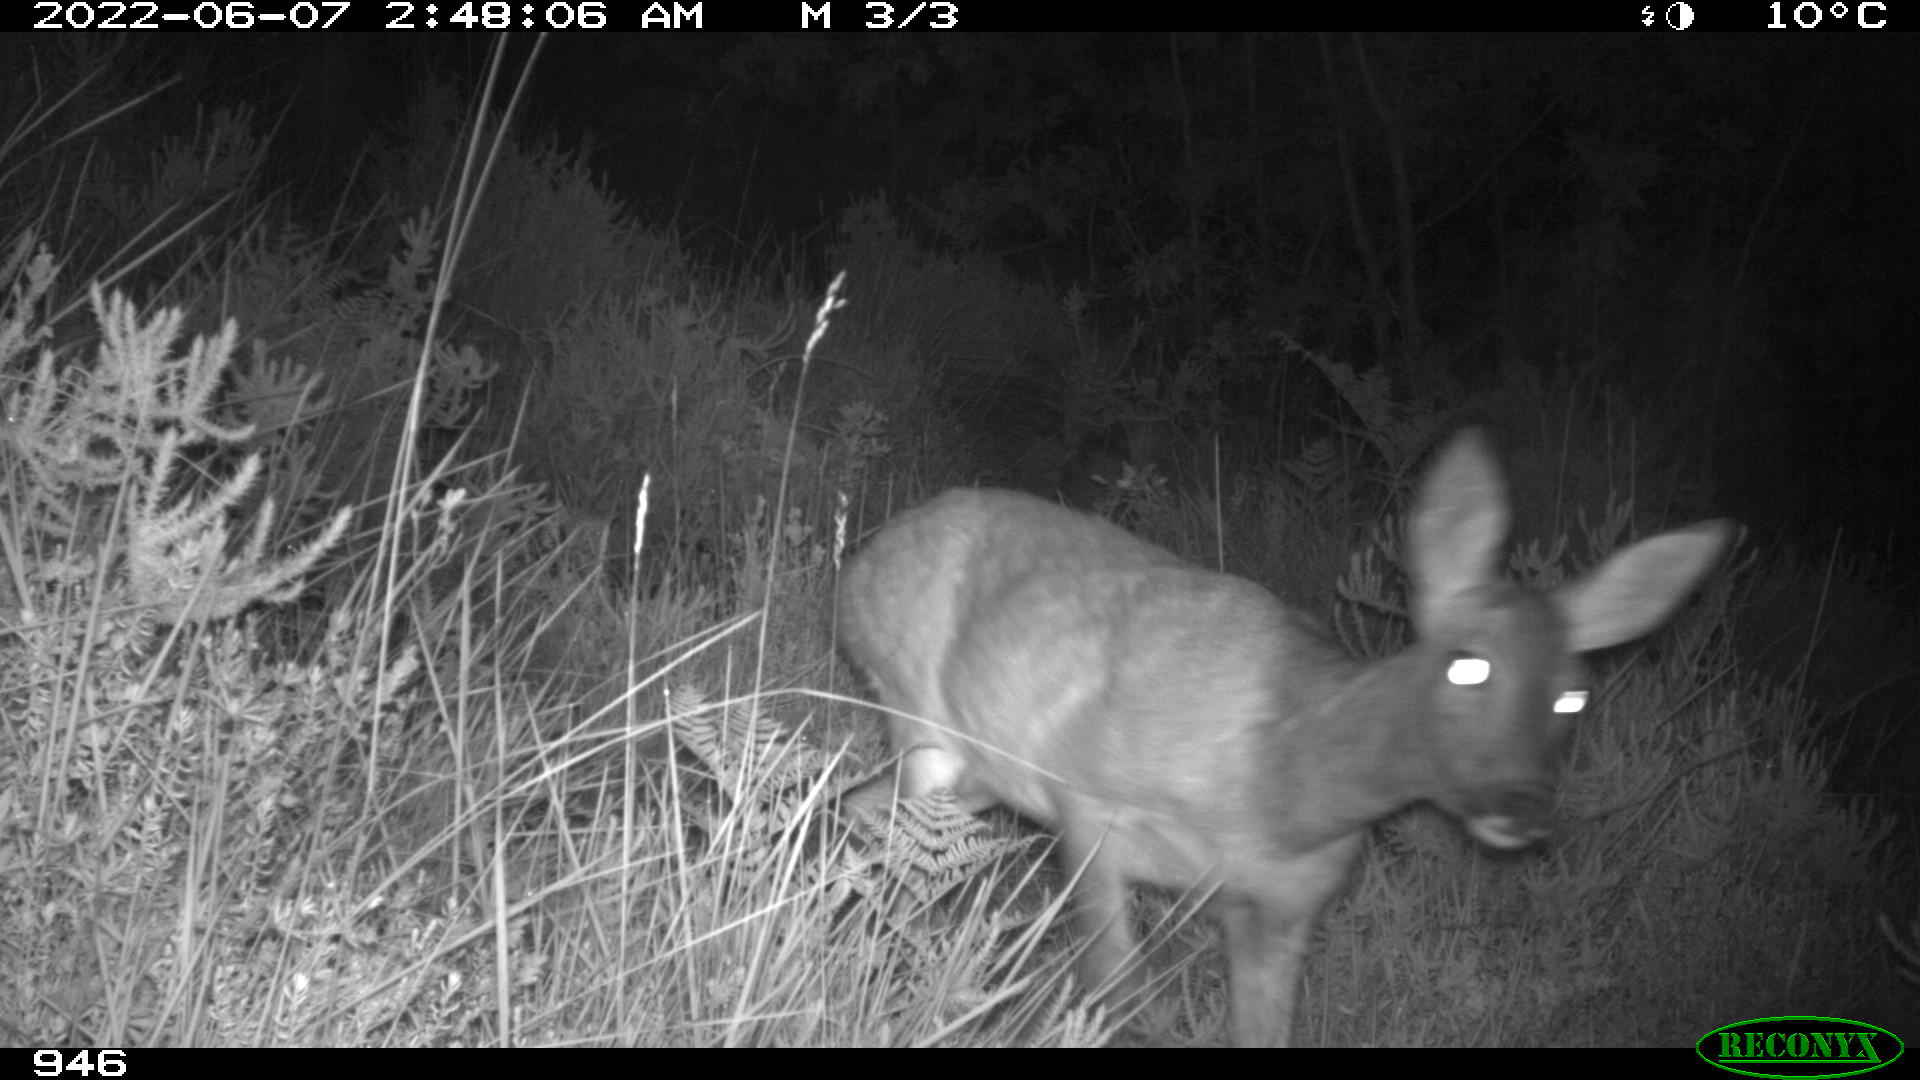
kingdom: Animalia
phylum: Chordata
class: Mammalia
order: Artiodactyla
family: Cervidae
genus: Capreolus
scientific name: Capreolus capreolus
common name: Western roe deer
